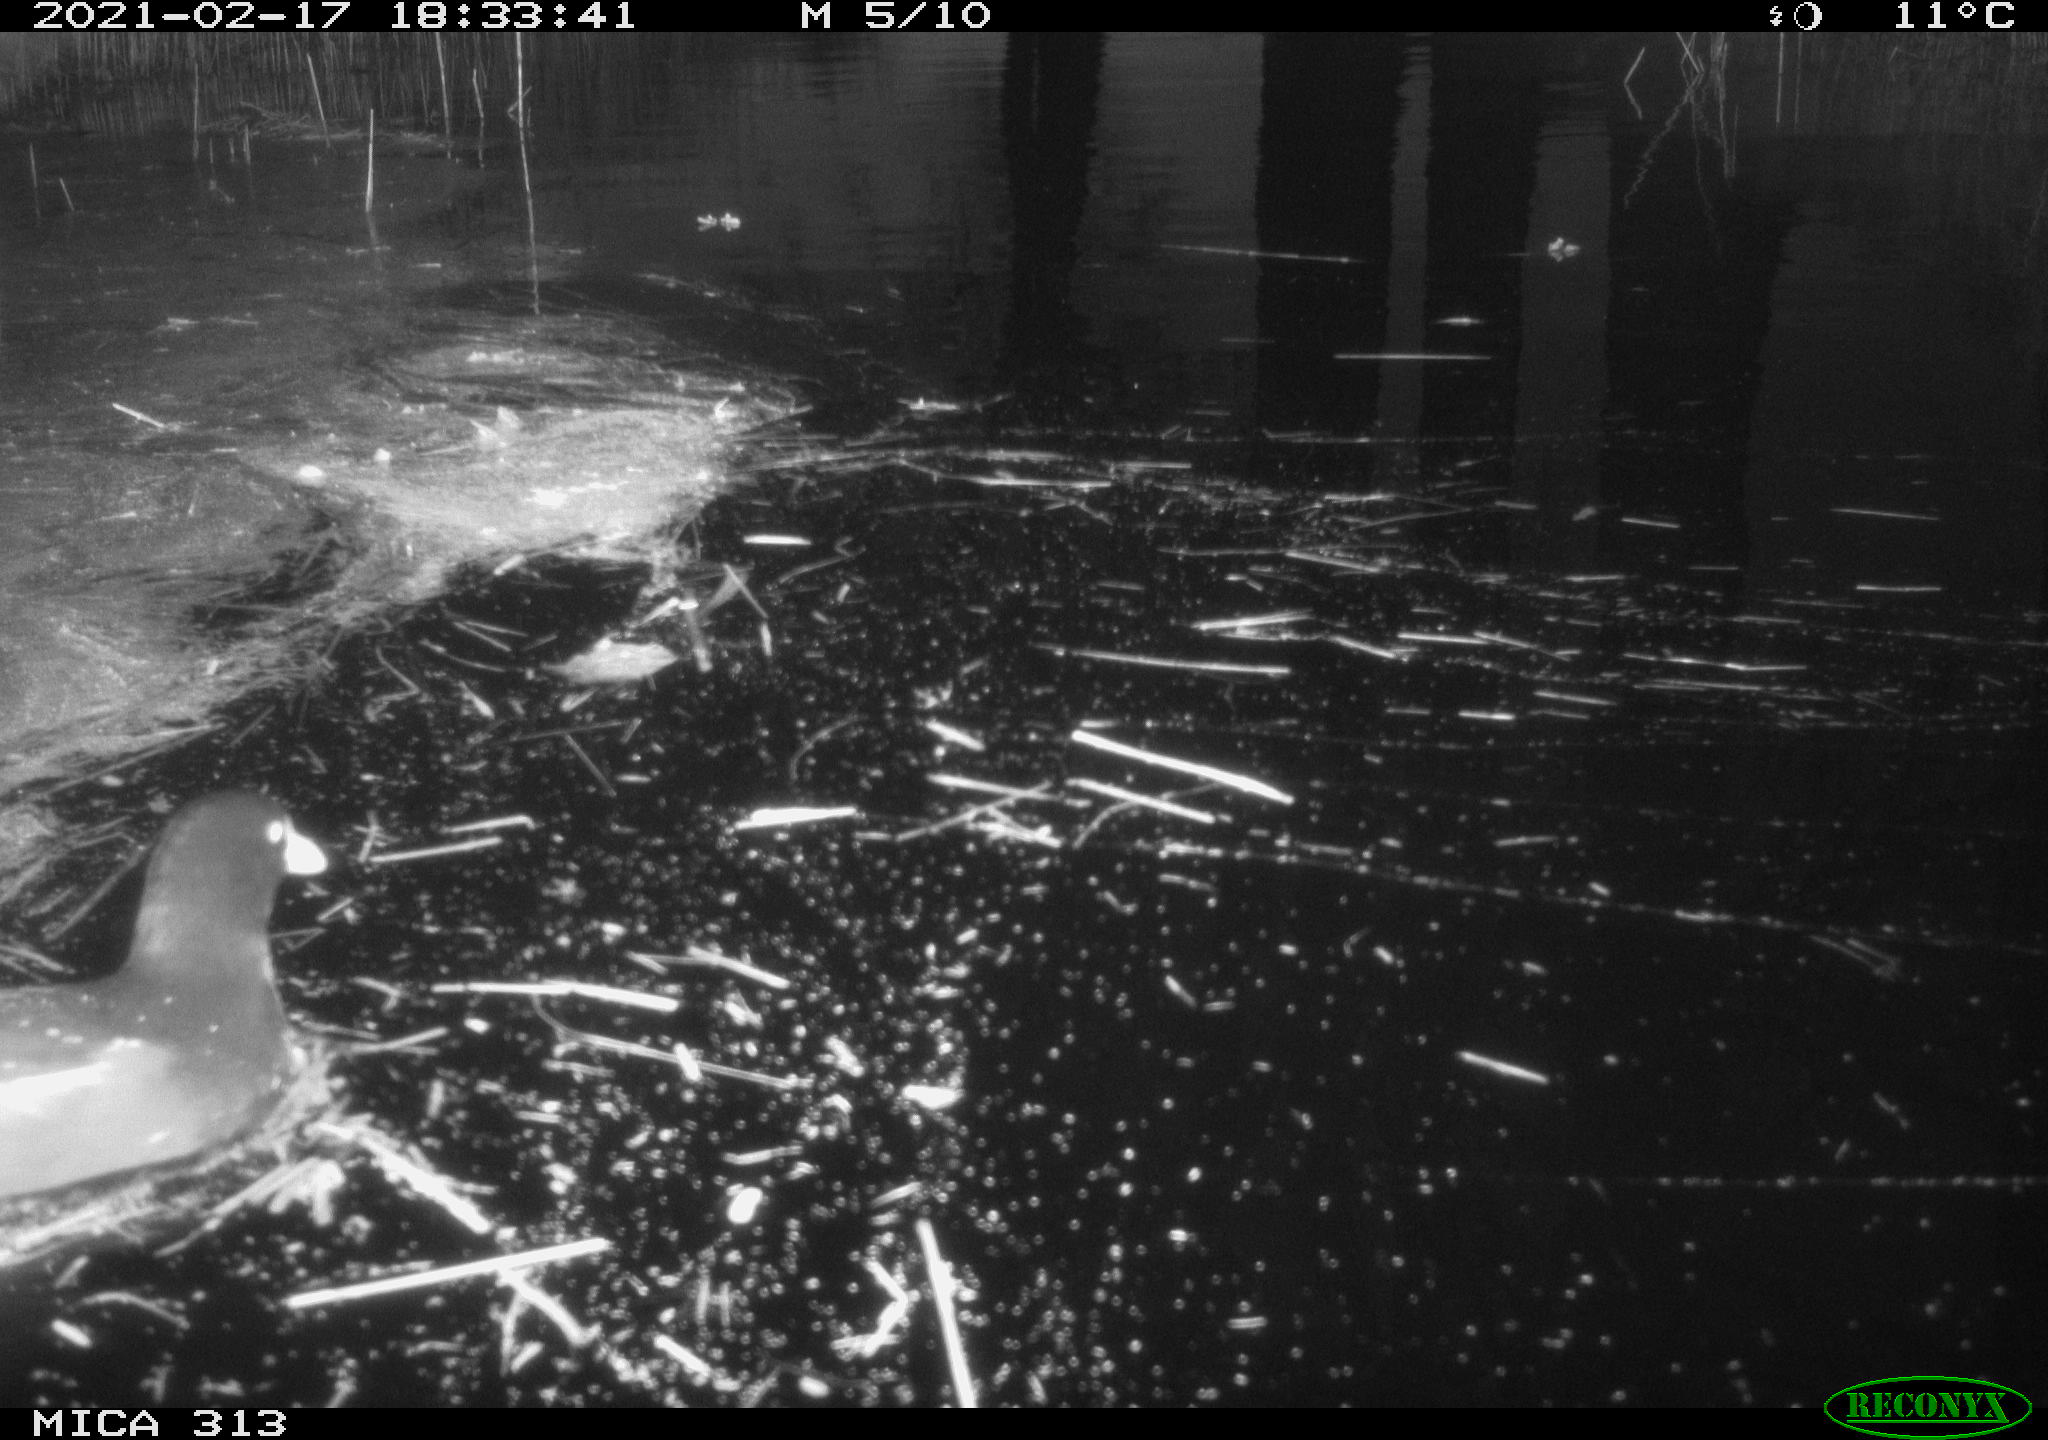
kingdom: Animalia
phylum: Chordata
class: Aves
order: Gruiformes
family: Rallidae
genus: Gallinula
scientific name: Gallinula chloropus
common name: Common moorhen
